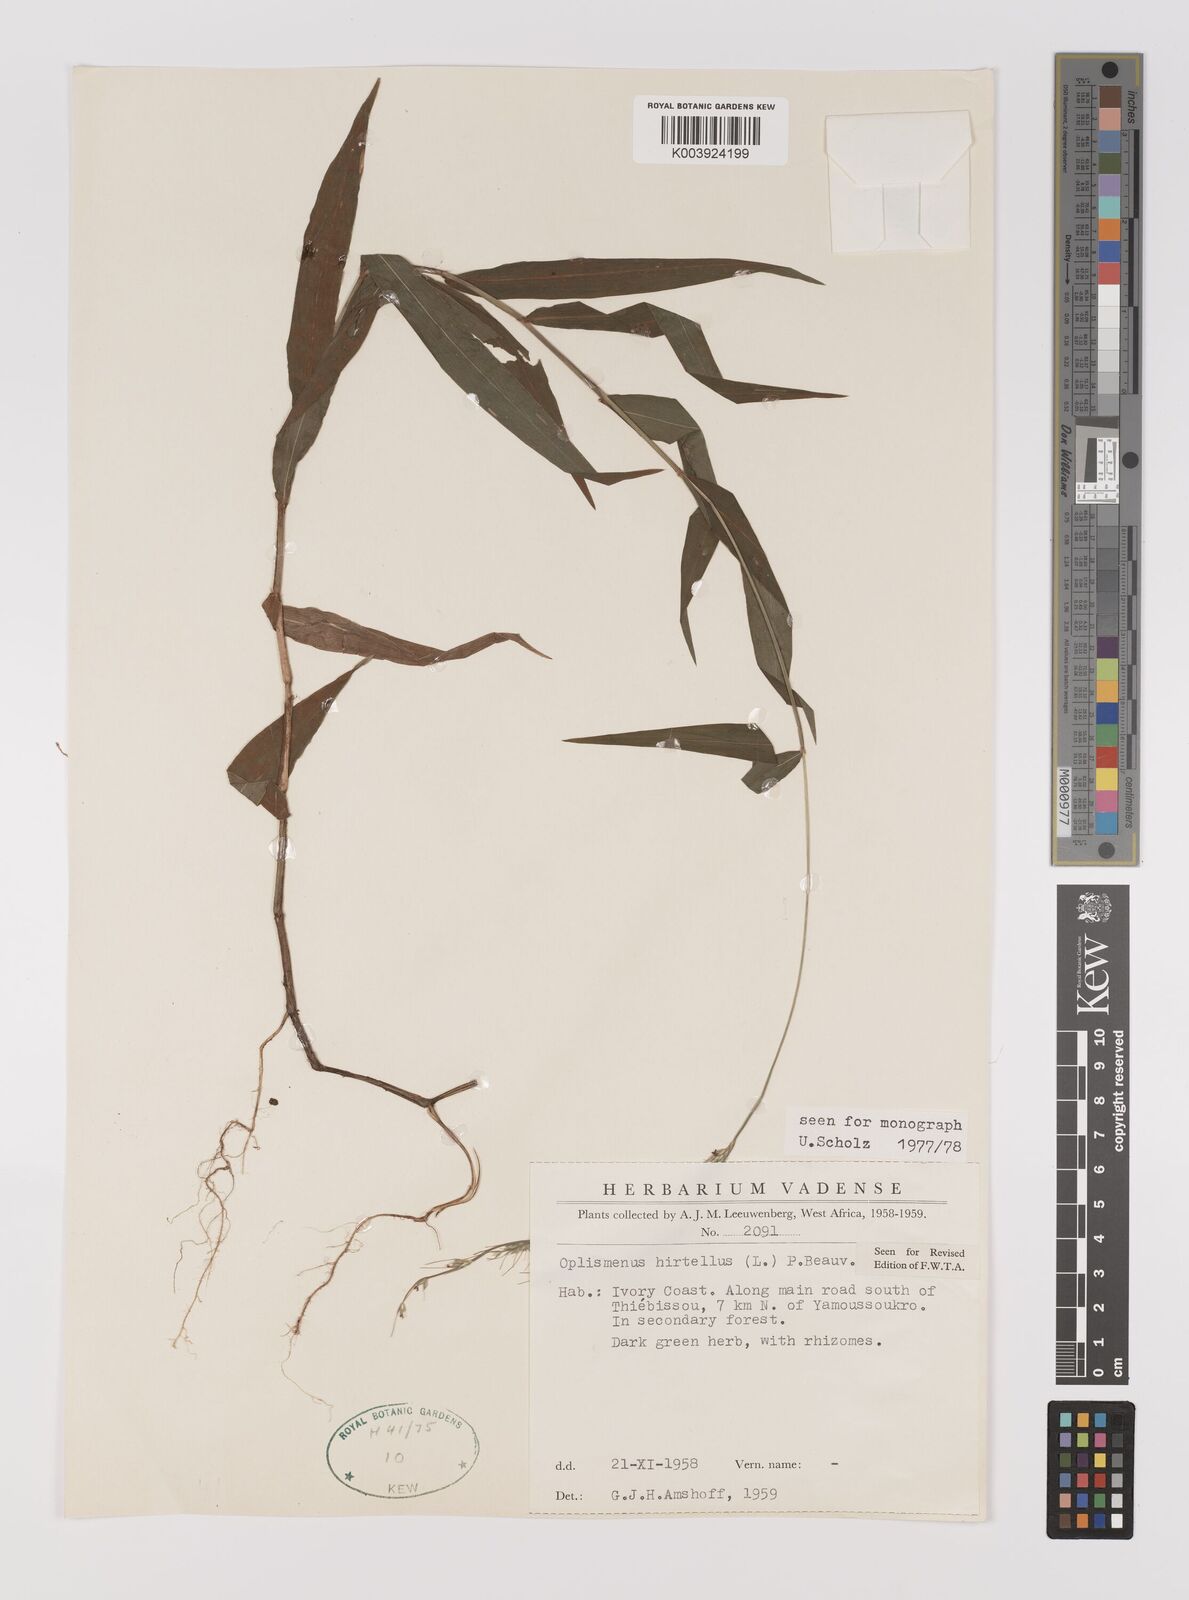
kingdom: Plantae
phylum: Tracheophyta
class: Liliopsida
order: Poales
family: Poaceae
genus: Oplismenus
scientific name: Oplismenus hirtellus
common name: Basketgrass
